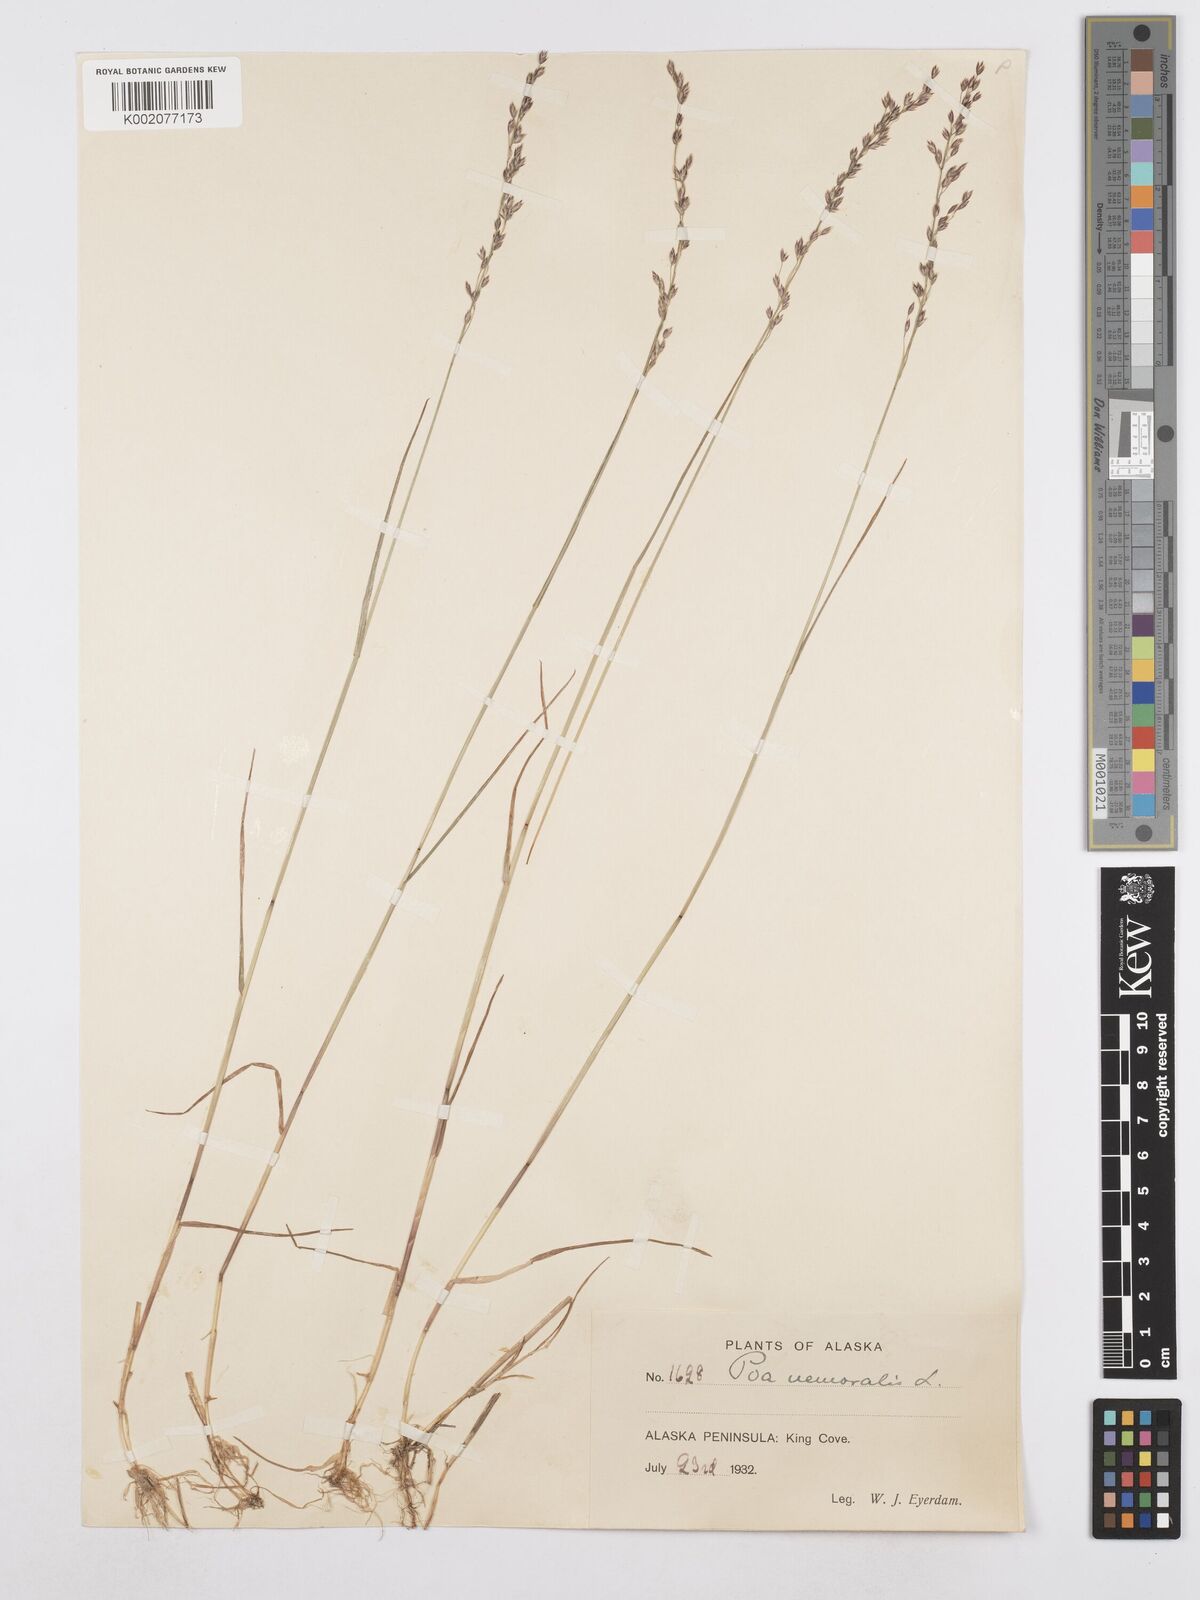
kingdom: Plantae
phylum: Tracheophyta
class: Liliopsida
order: Poales
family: Poaceae
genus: Poa
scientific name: Poa nemoralis
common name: Wood bluegrass
